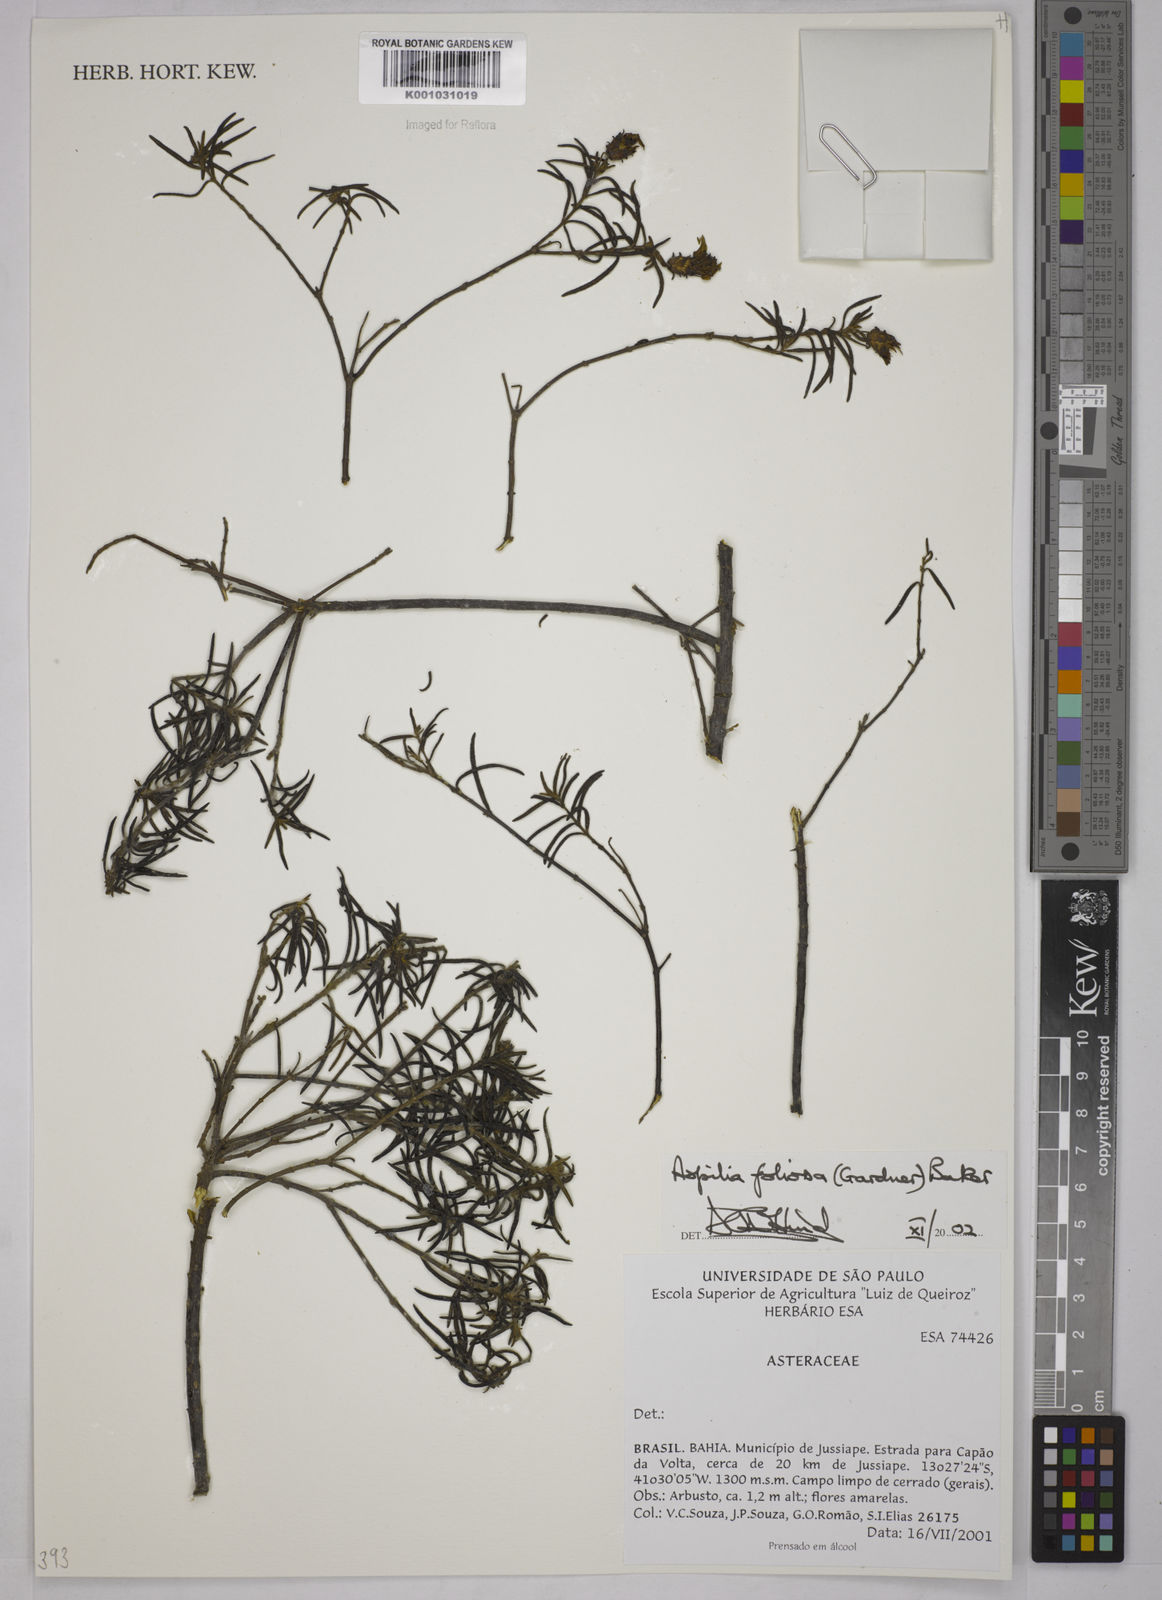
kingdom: Plantae
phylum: Tracheophyta
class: Magnoliopsida
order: Asterales
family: Asteraceae
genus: Aspilia
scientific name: Aspilia
